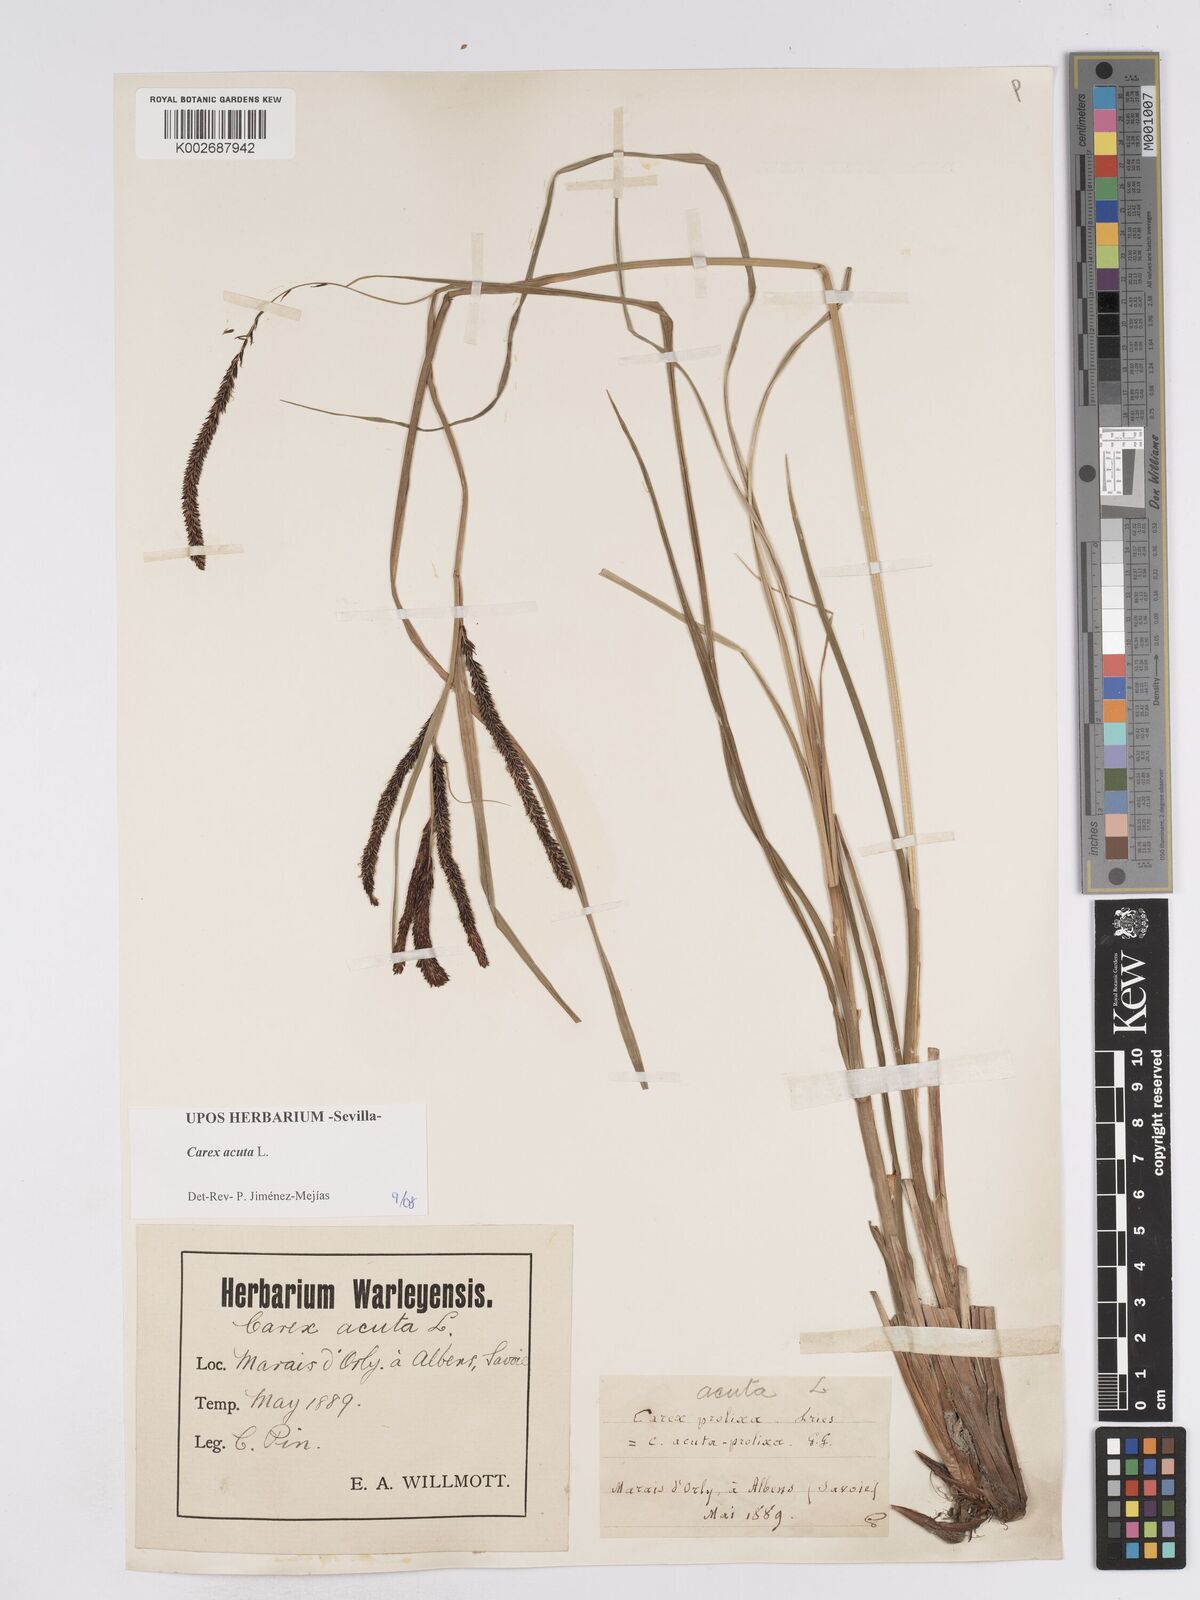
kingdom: Plantae
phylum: Tracheophyta
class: Liliopsida
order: Poales
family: Cyperaceae
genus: Carex
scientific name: Carex acuta
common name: Slender tufted-sedge
